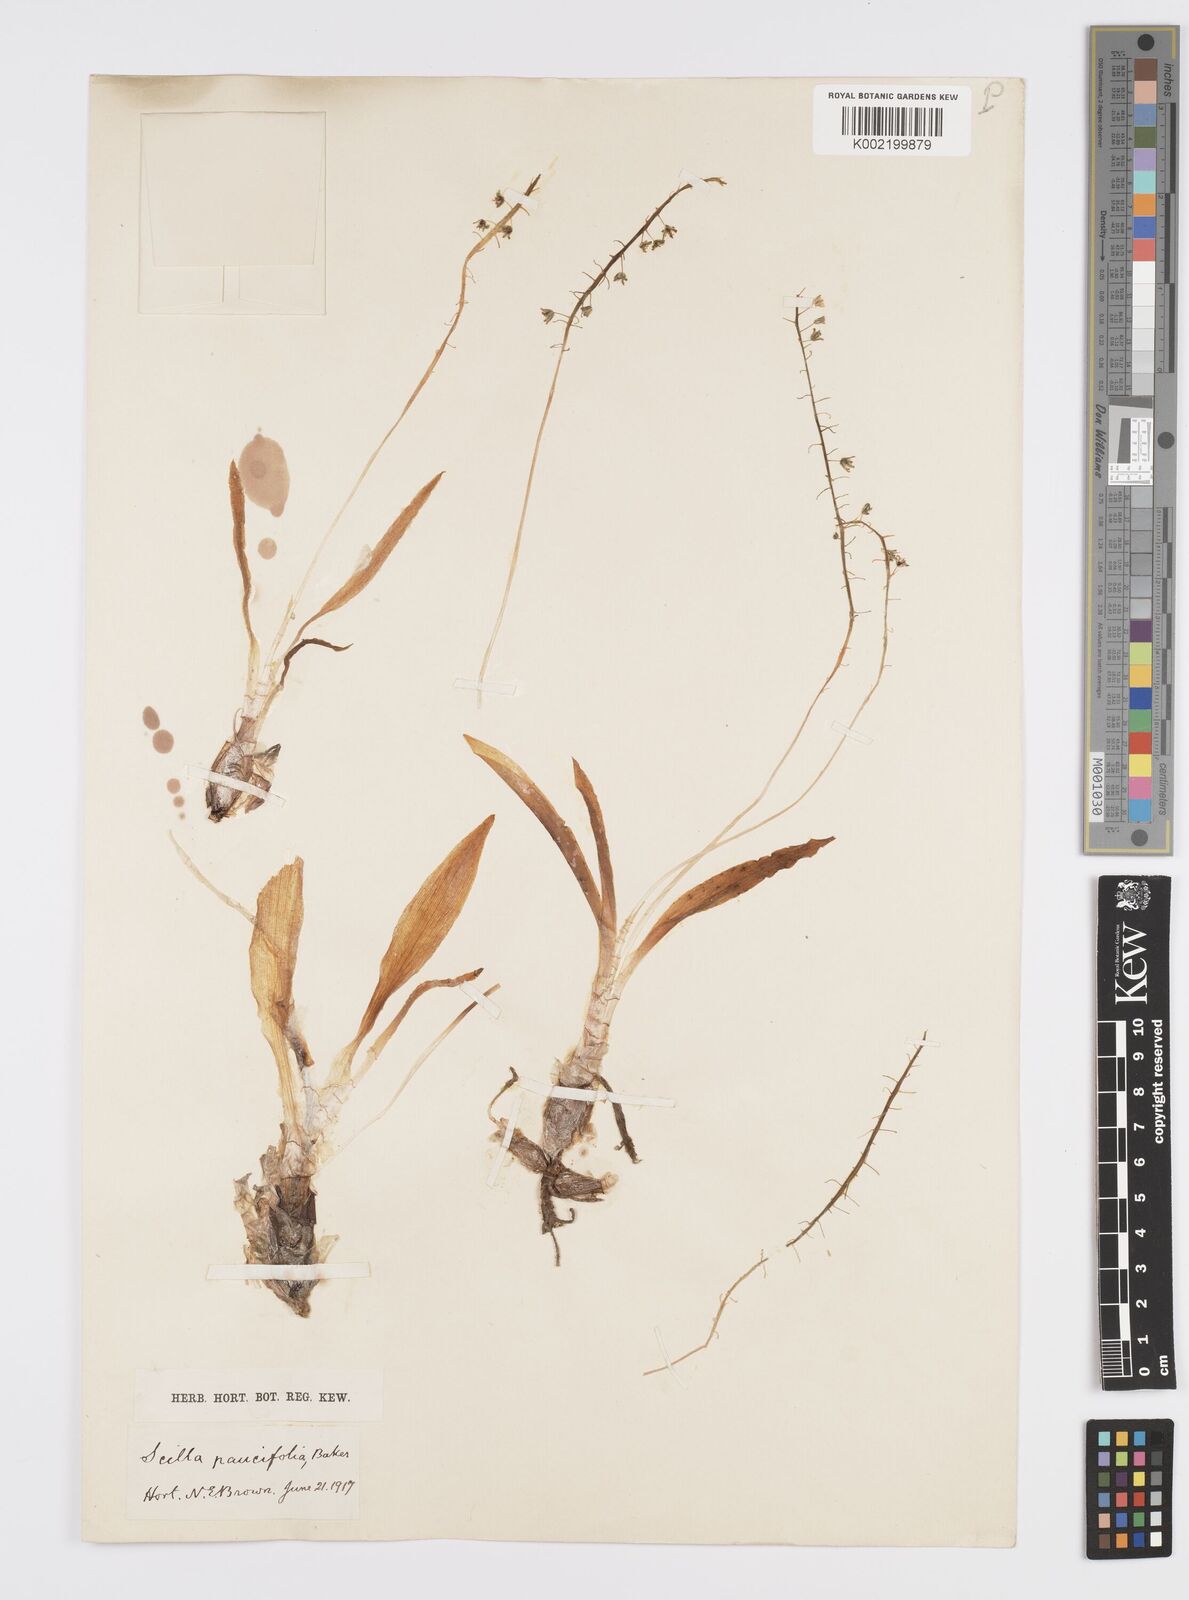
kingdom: Plantae
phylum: Tracheophyta
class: Liliopsida
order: Asparagales
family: Asparagaceae
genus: Ledebouria
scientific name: Ledebouria socialis
